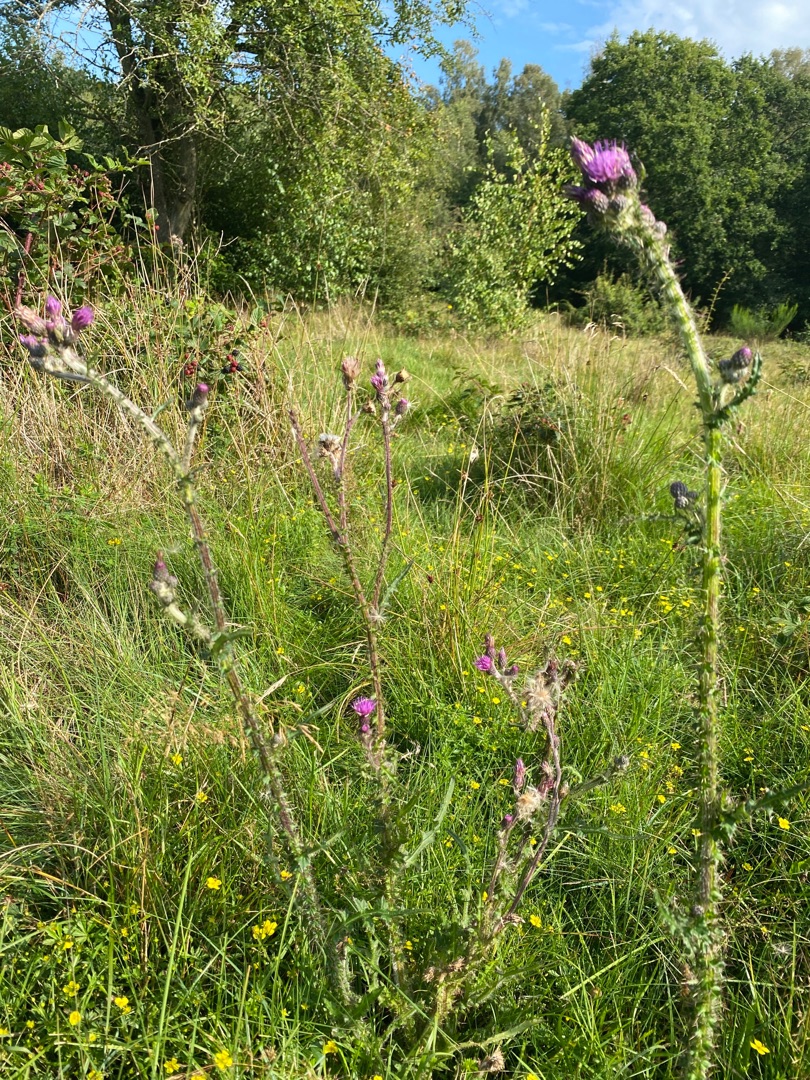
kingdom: Plantae
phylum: Tracheophyta
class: Magnoliopsida
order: Asterales
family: Asteraceae
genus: Cirsium
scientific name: Cirsium palustre
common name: Kær-tidsel
